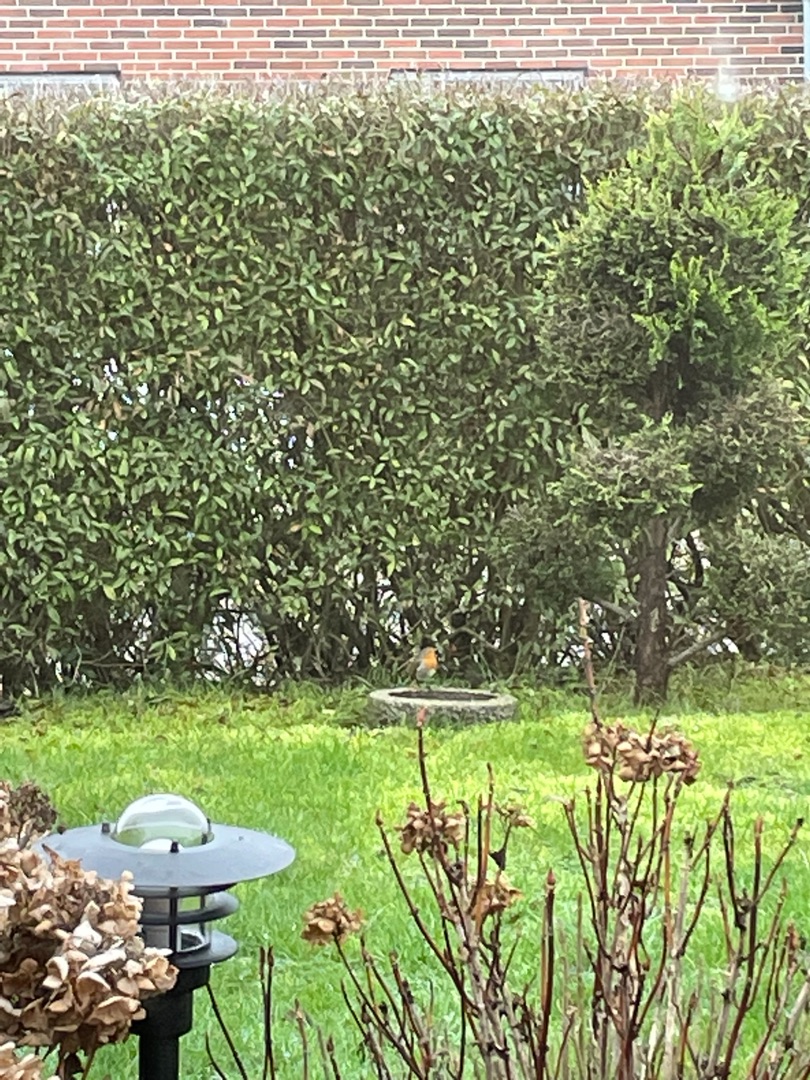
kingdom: Animalia
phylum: Chordata
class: Aves
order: Passeriformes
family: Muscicapidae
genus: Erithacus
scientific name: Erithacus rubecula
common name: Rødhals/rødkælk
